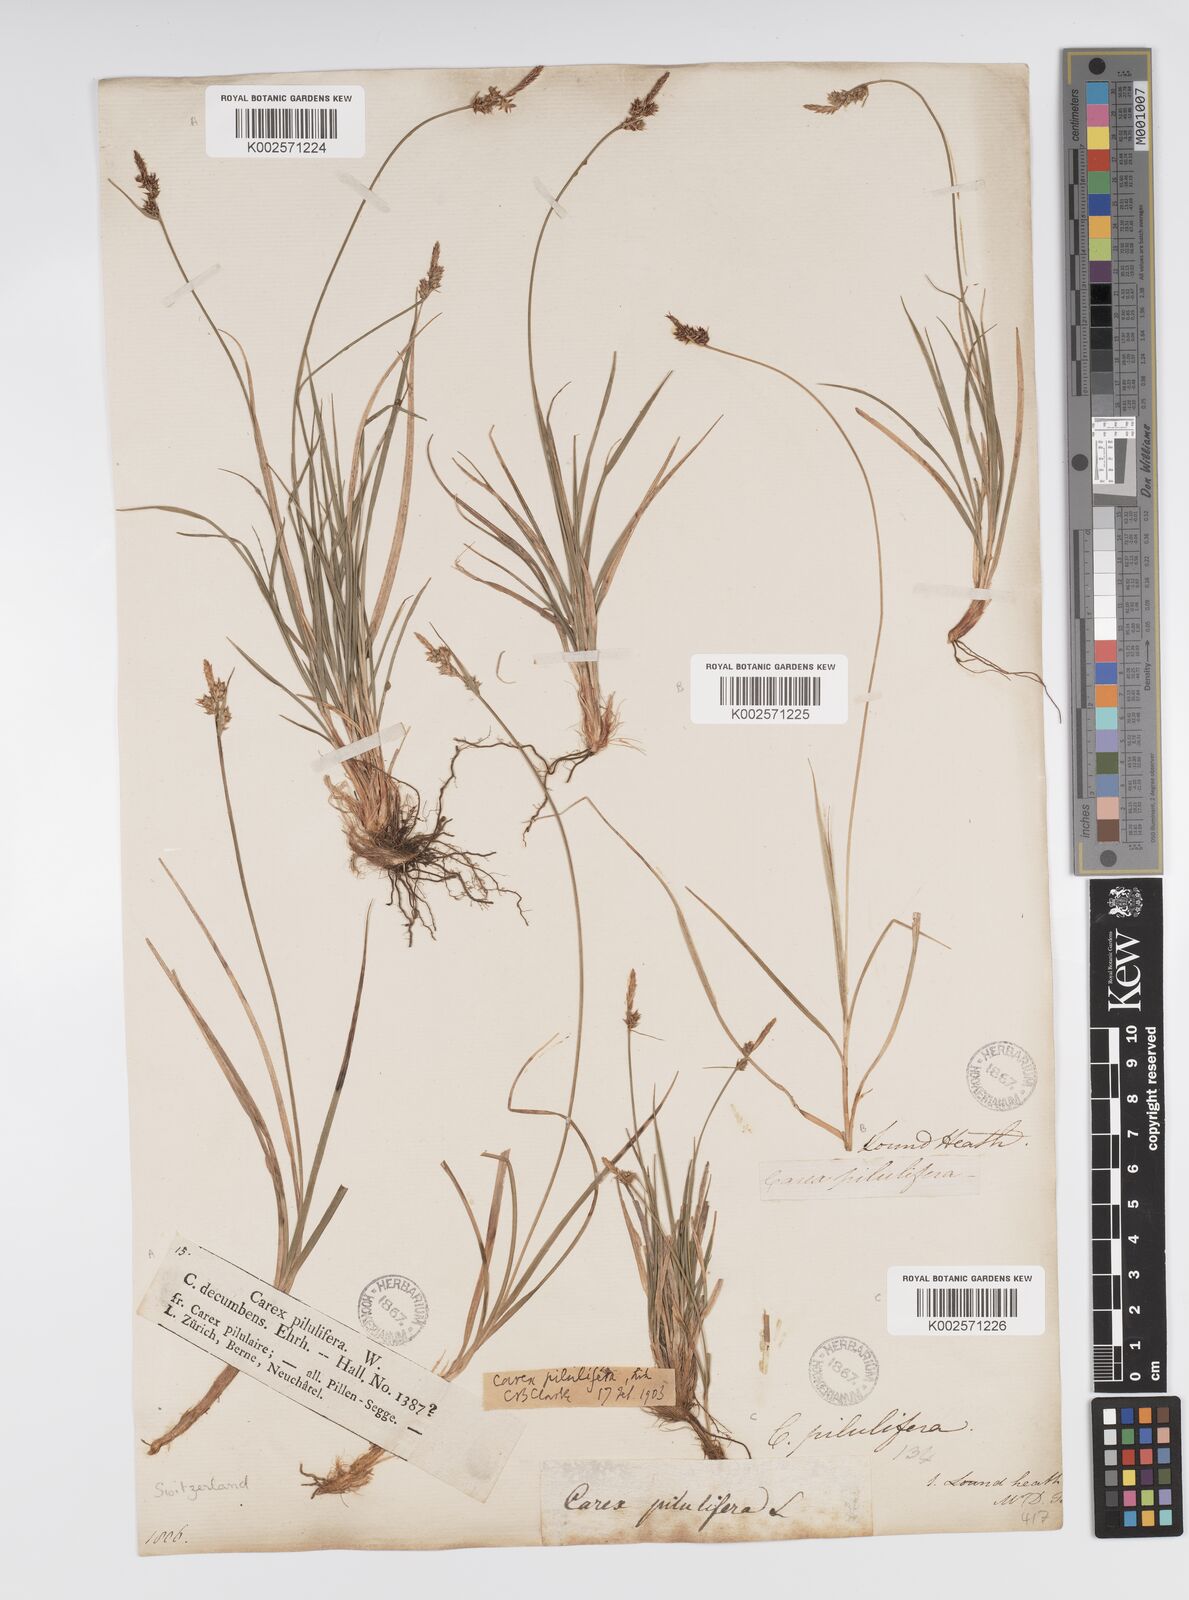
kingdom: Plantae
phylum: Tracheophyta
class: Liliopsida
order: Poales
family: Cyperaceae
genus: Carex
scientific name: Carex pilulifera
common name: Pill sedge
